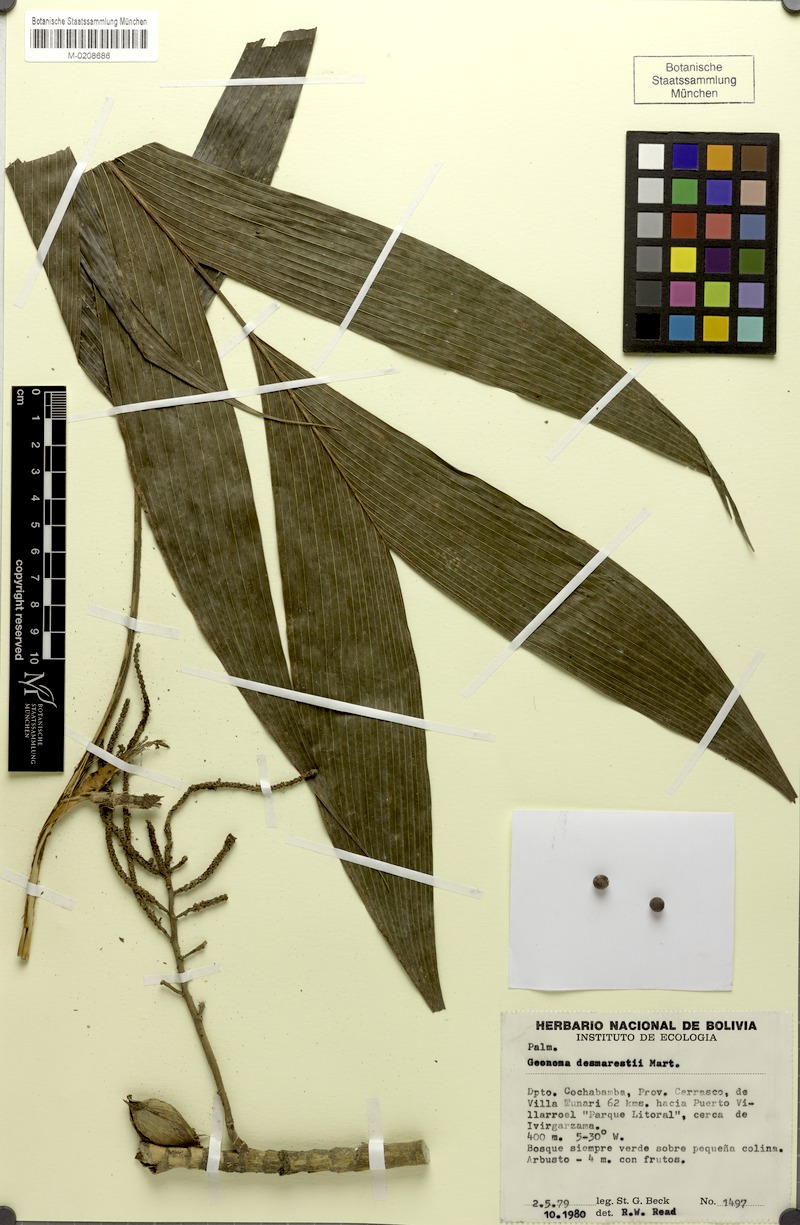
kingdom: Plantae
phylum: Tracheophyta
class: Liliopsida
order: Arecales
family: Arecaceae
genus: Geonoma
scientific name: Geonoma deversa
